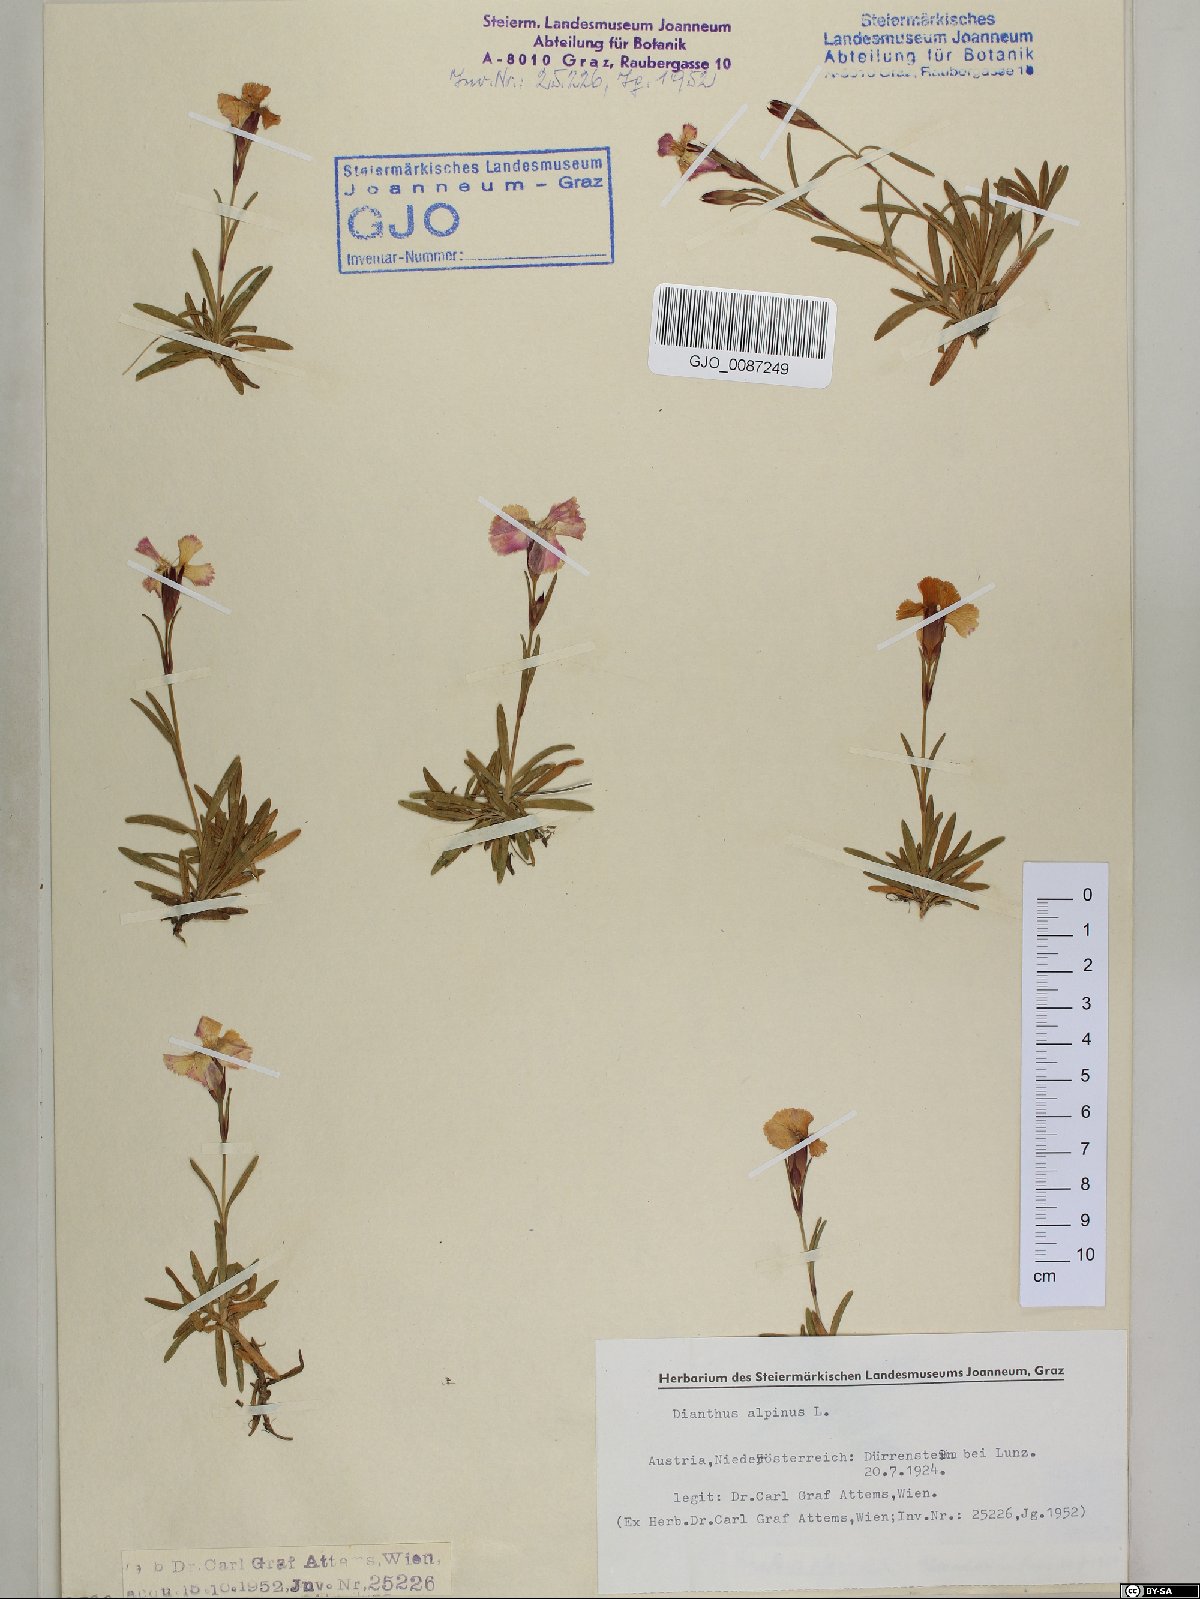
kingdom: Plantae
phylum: Tracheophyta
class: Magnoliopsida
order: Caryophyllales
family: Caryophyllaceae
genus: Dianthus
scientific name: Dianthus alpinus
